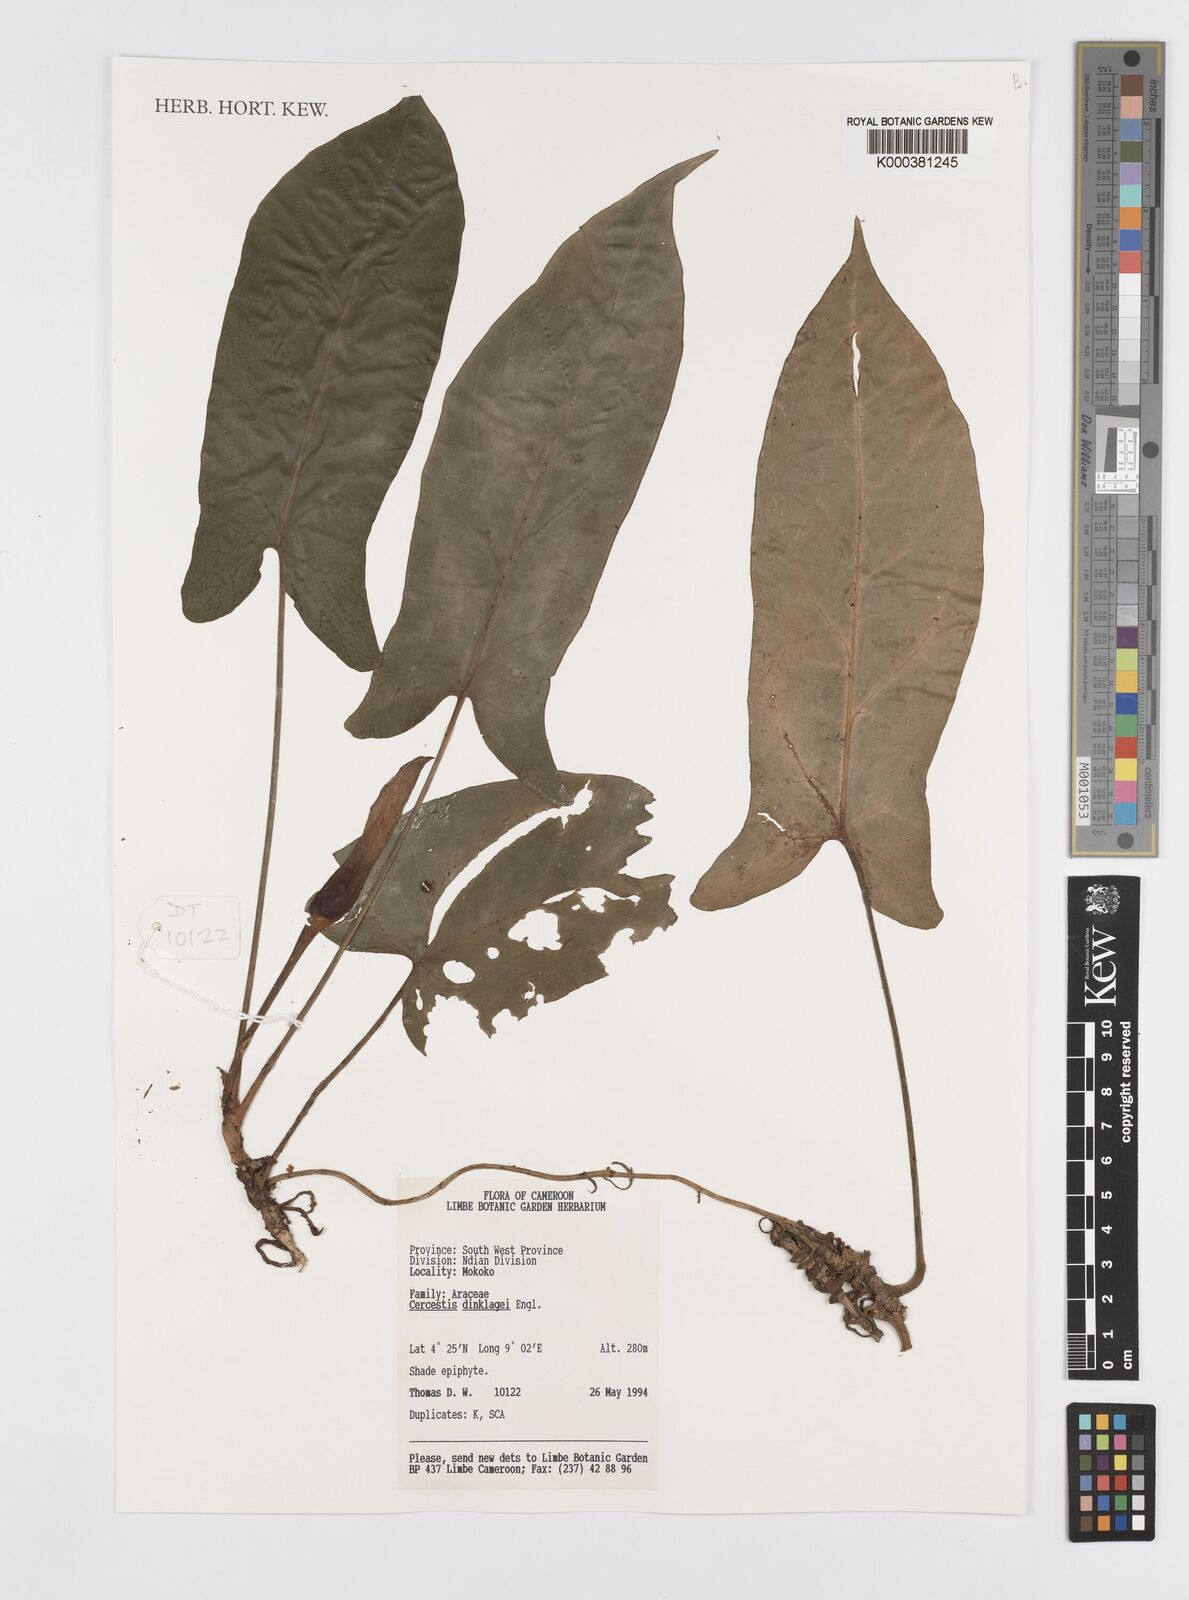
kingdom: Plantae
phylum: Tracheophyta
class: Liliopsida
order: Alismatales
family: Araceae
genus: Cercestis
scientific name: Cercestis dinklagei
